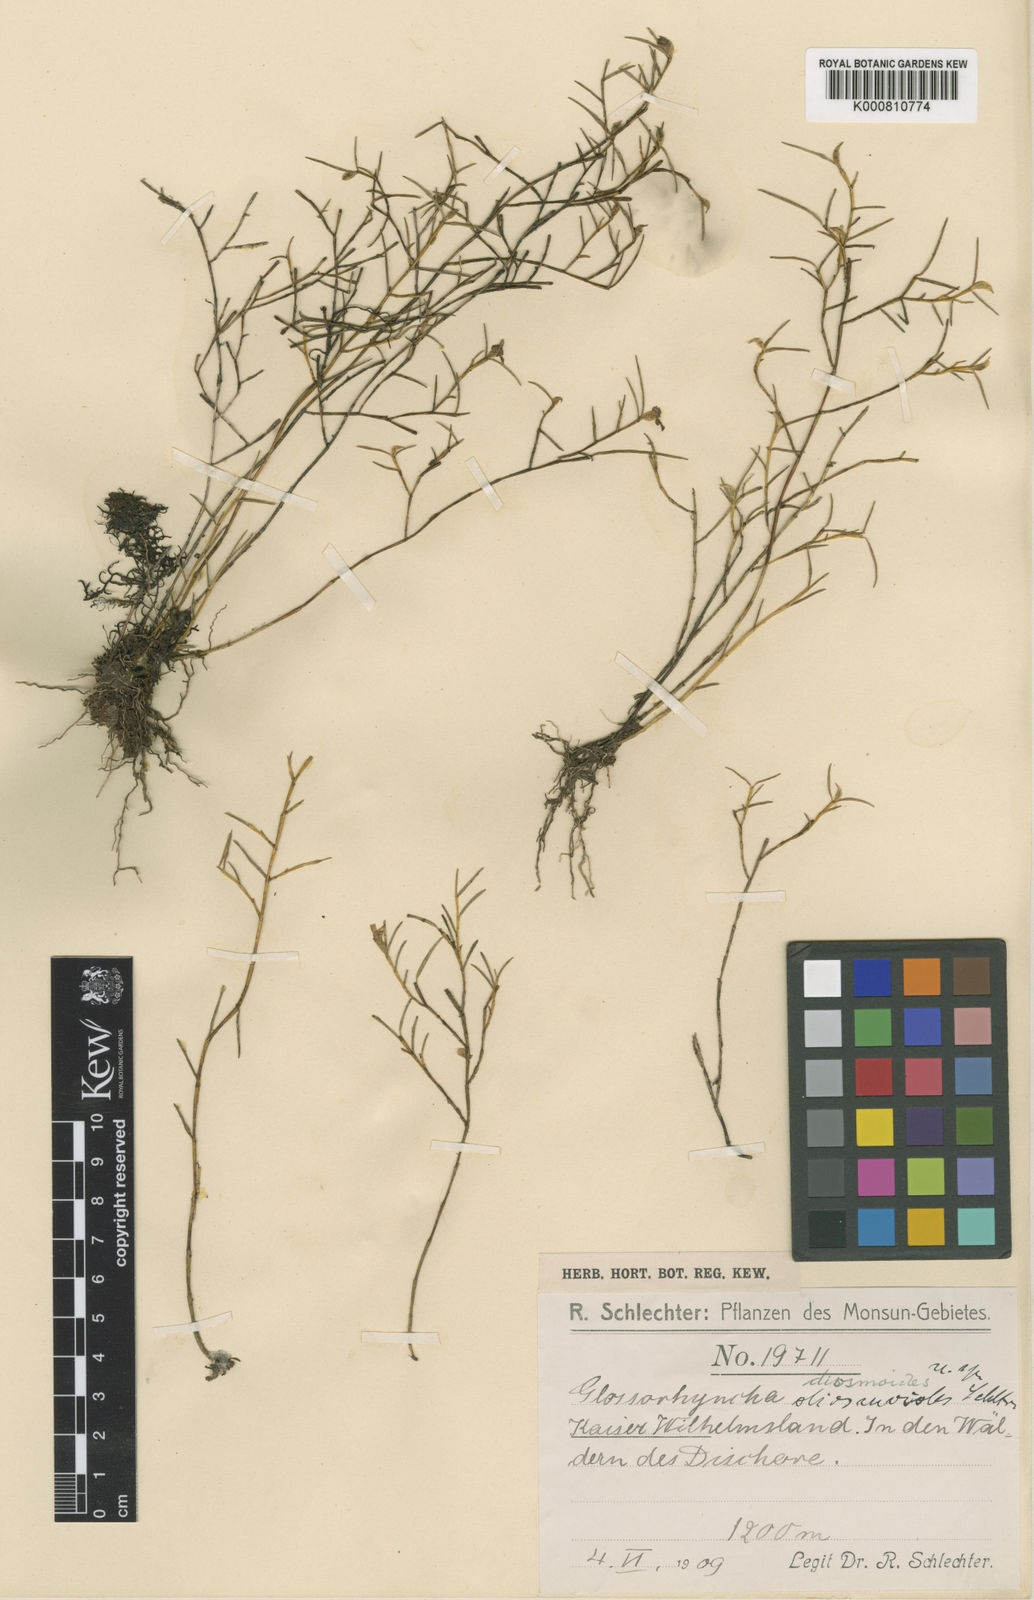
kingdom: Plantae
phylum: Tracheophyta
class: Liliopsida
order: Asparagales
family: Orchidaceae
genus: Glomera
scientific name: Glomera diosmoides
